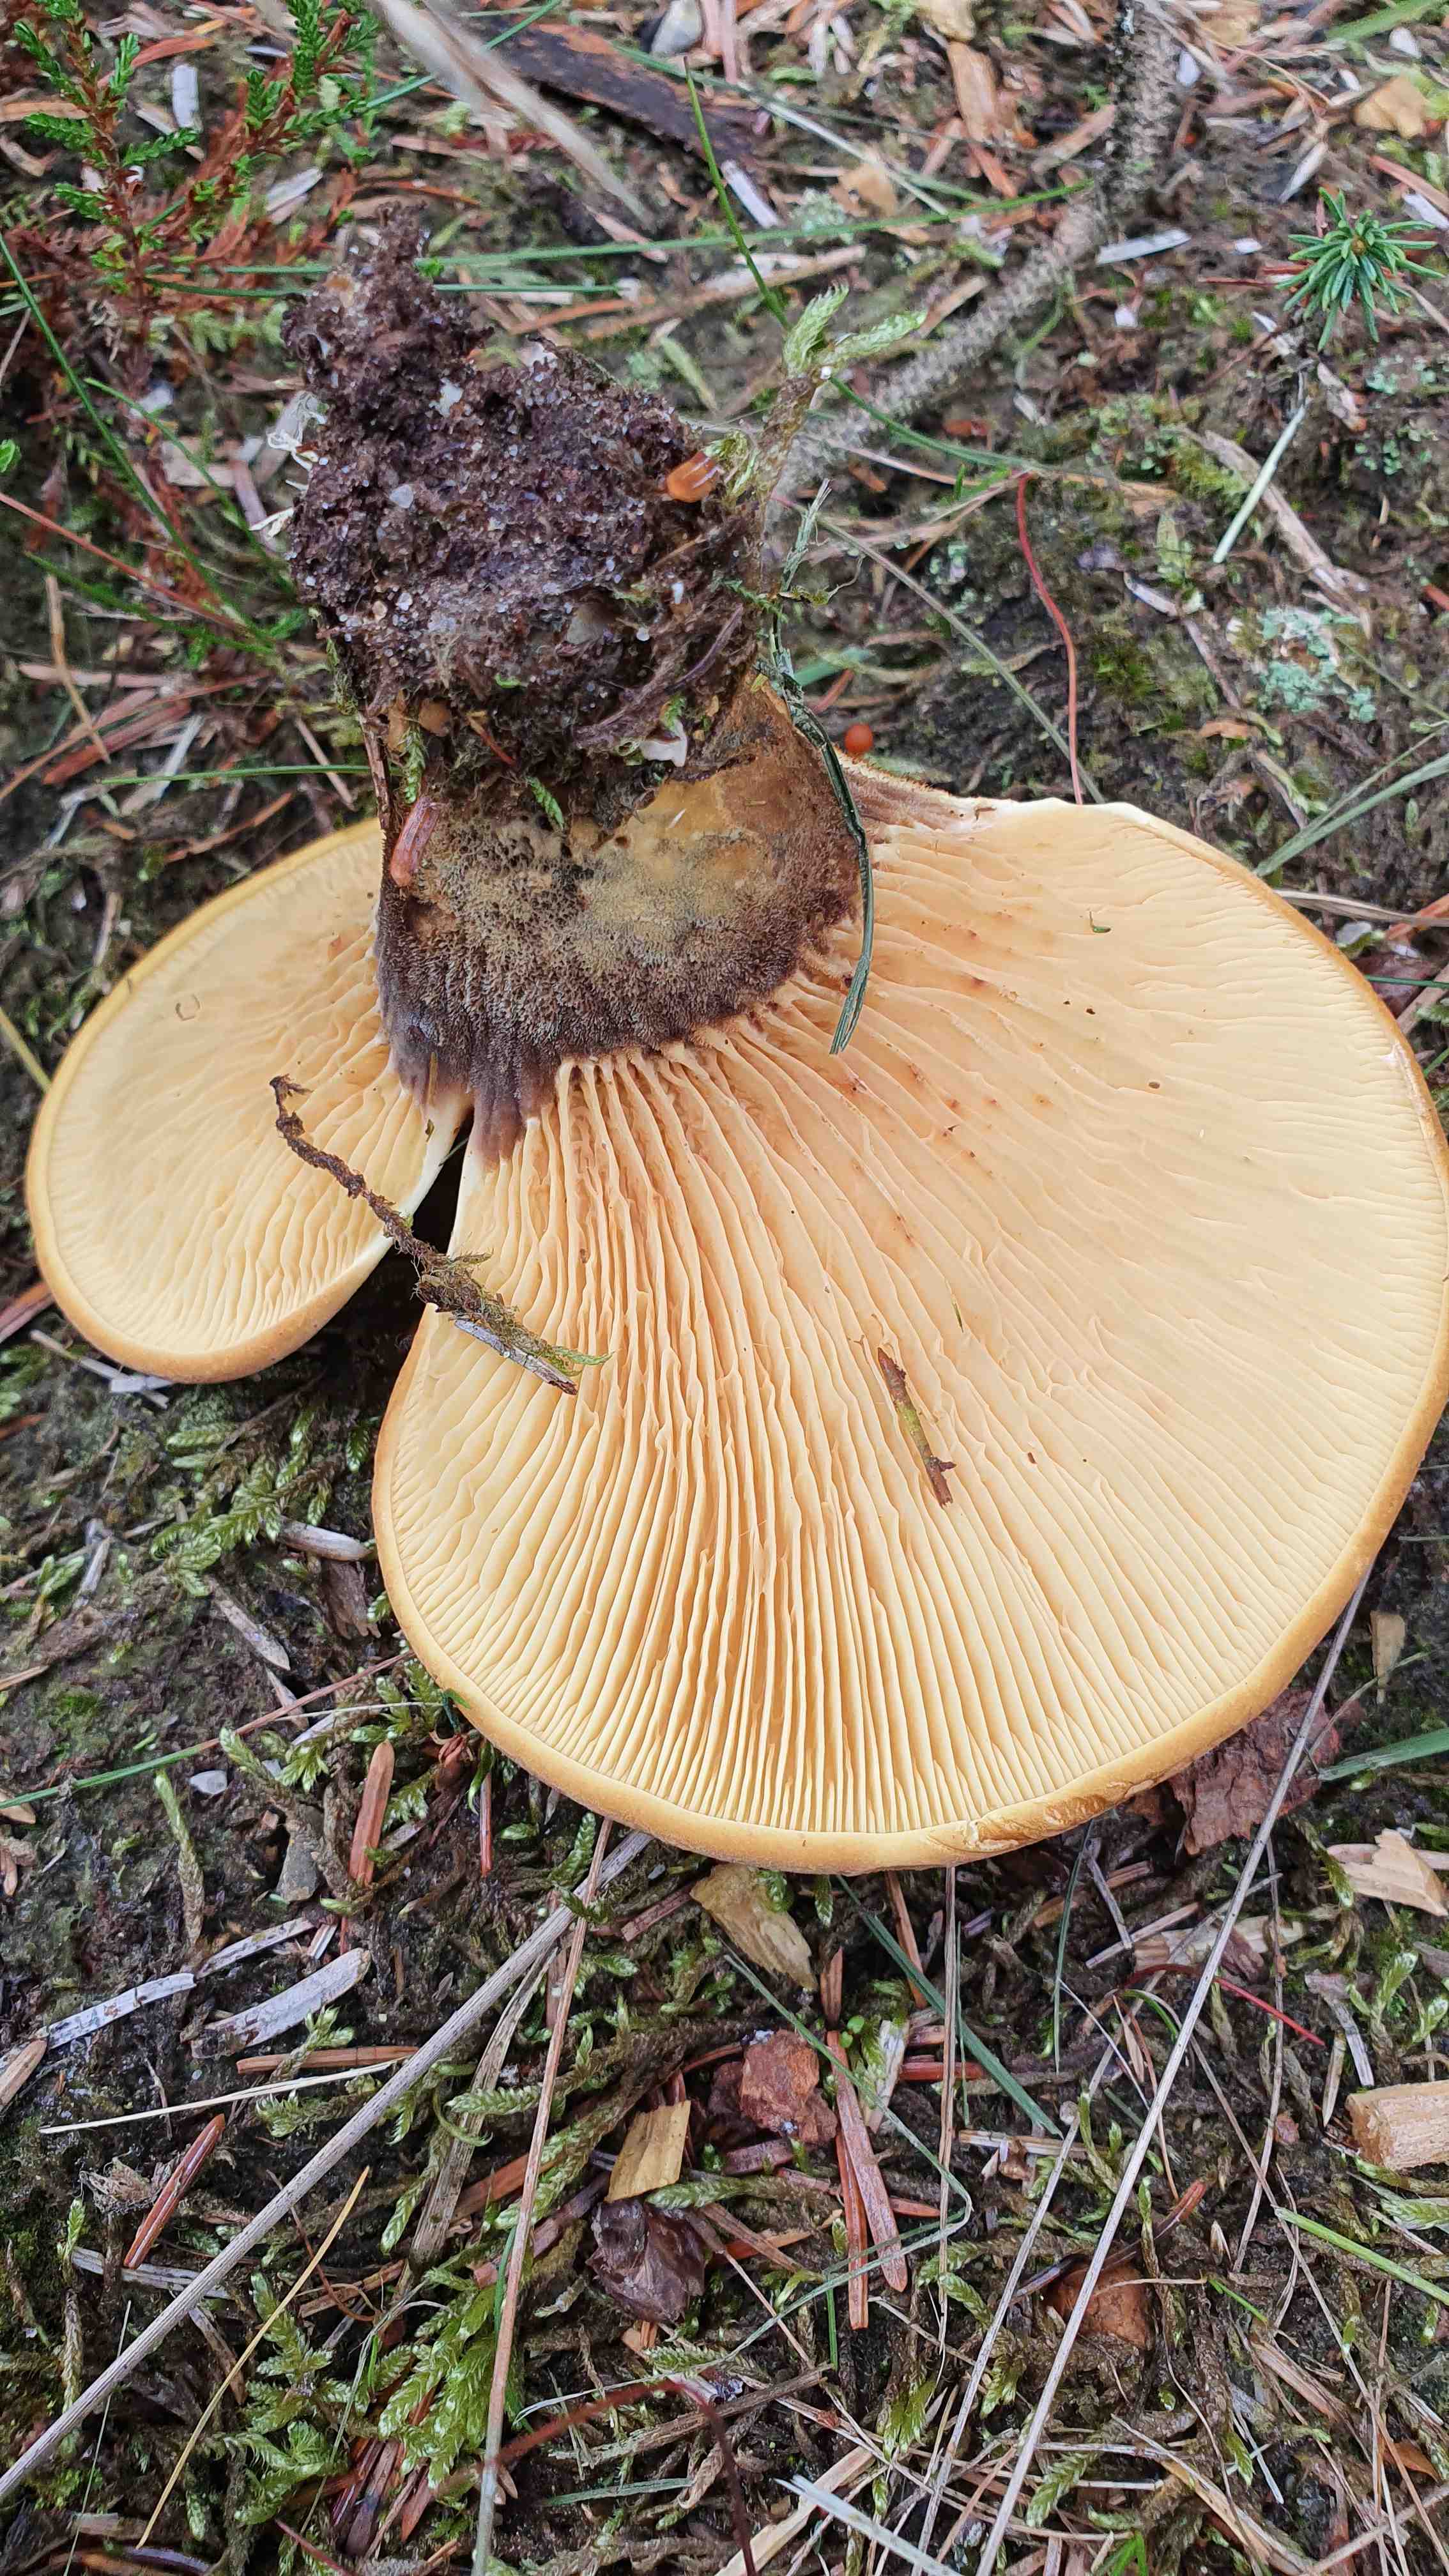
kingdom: Fungi
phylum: Basidiomycota
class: Agaricomycetes
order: Boletales
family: Tapinellaceae
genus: Tapinella
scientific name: Tapinella atrotomentosa
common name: sortfiltet viftesvamp
